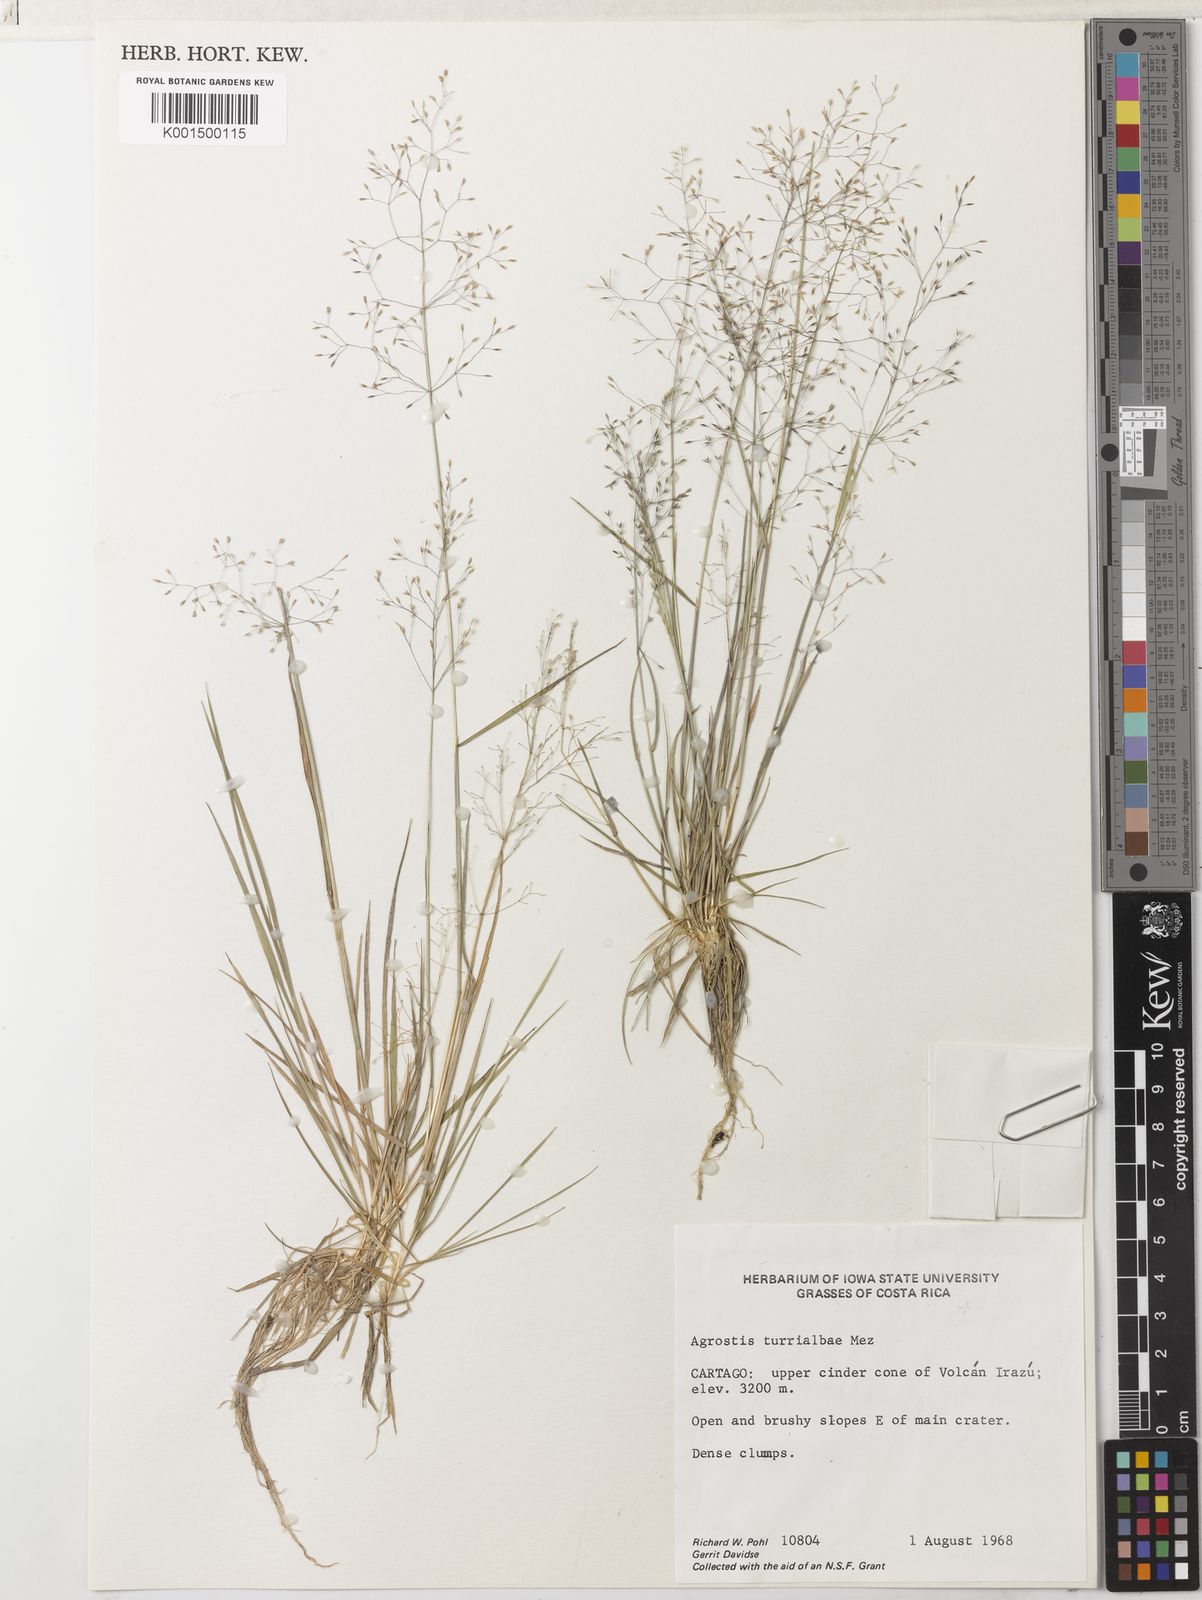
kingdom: Plantae
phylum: Tracheophyta
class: Liliopsida
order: Poales
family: Poaceae
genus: Agrostis
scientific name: Agrostis turrialbae
